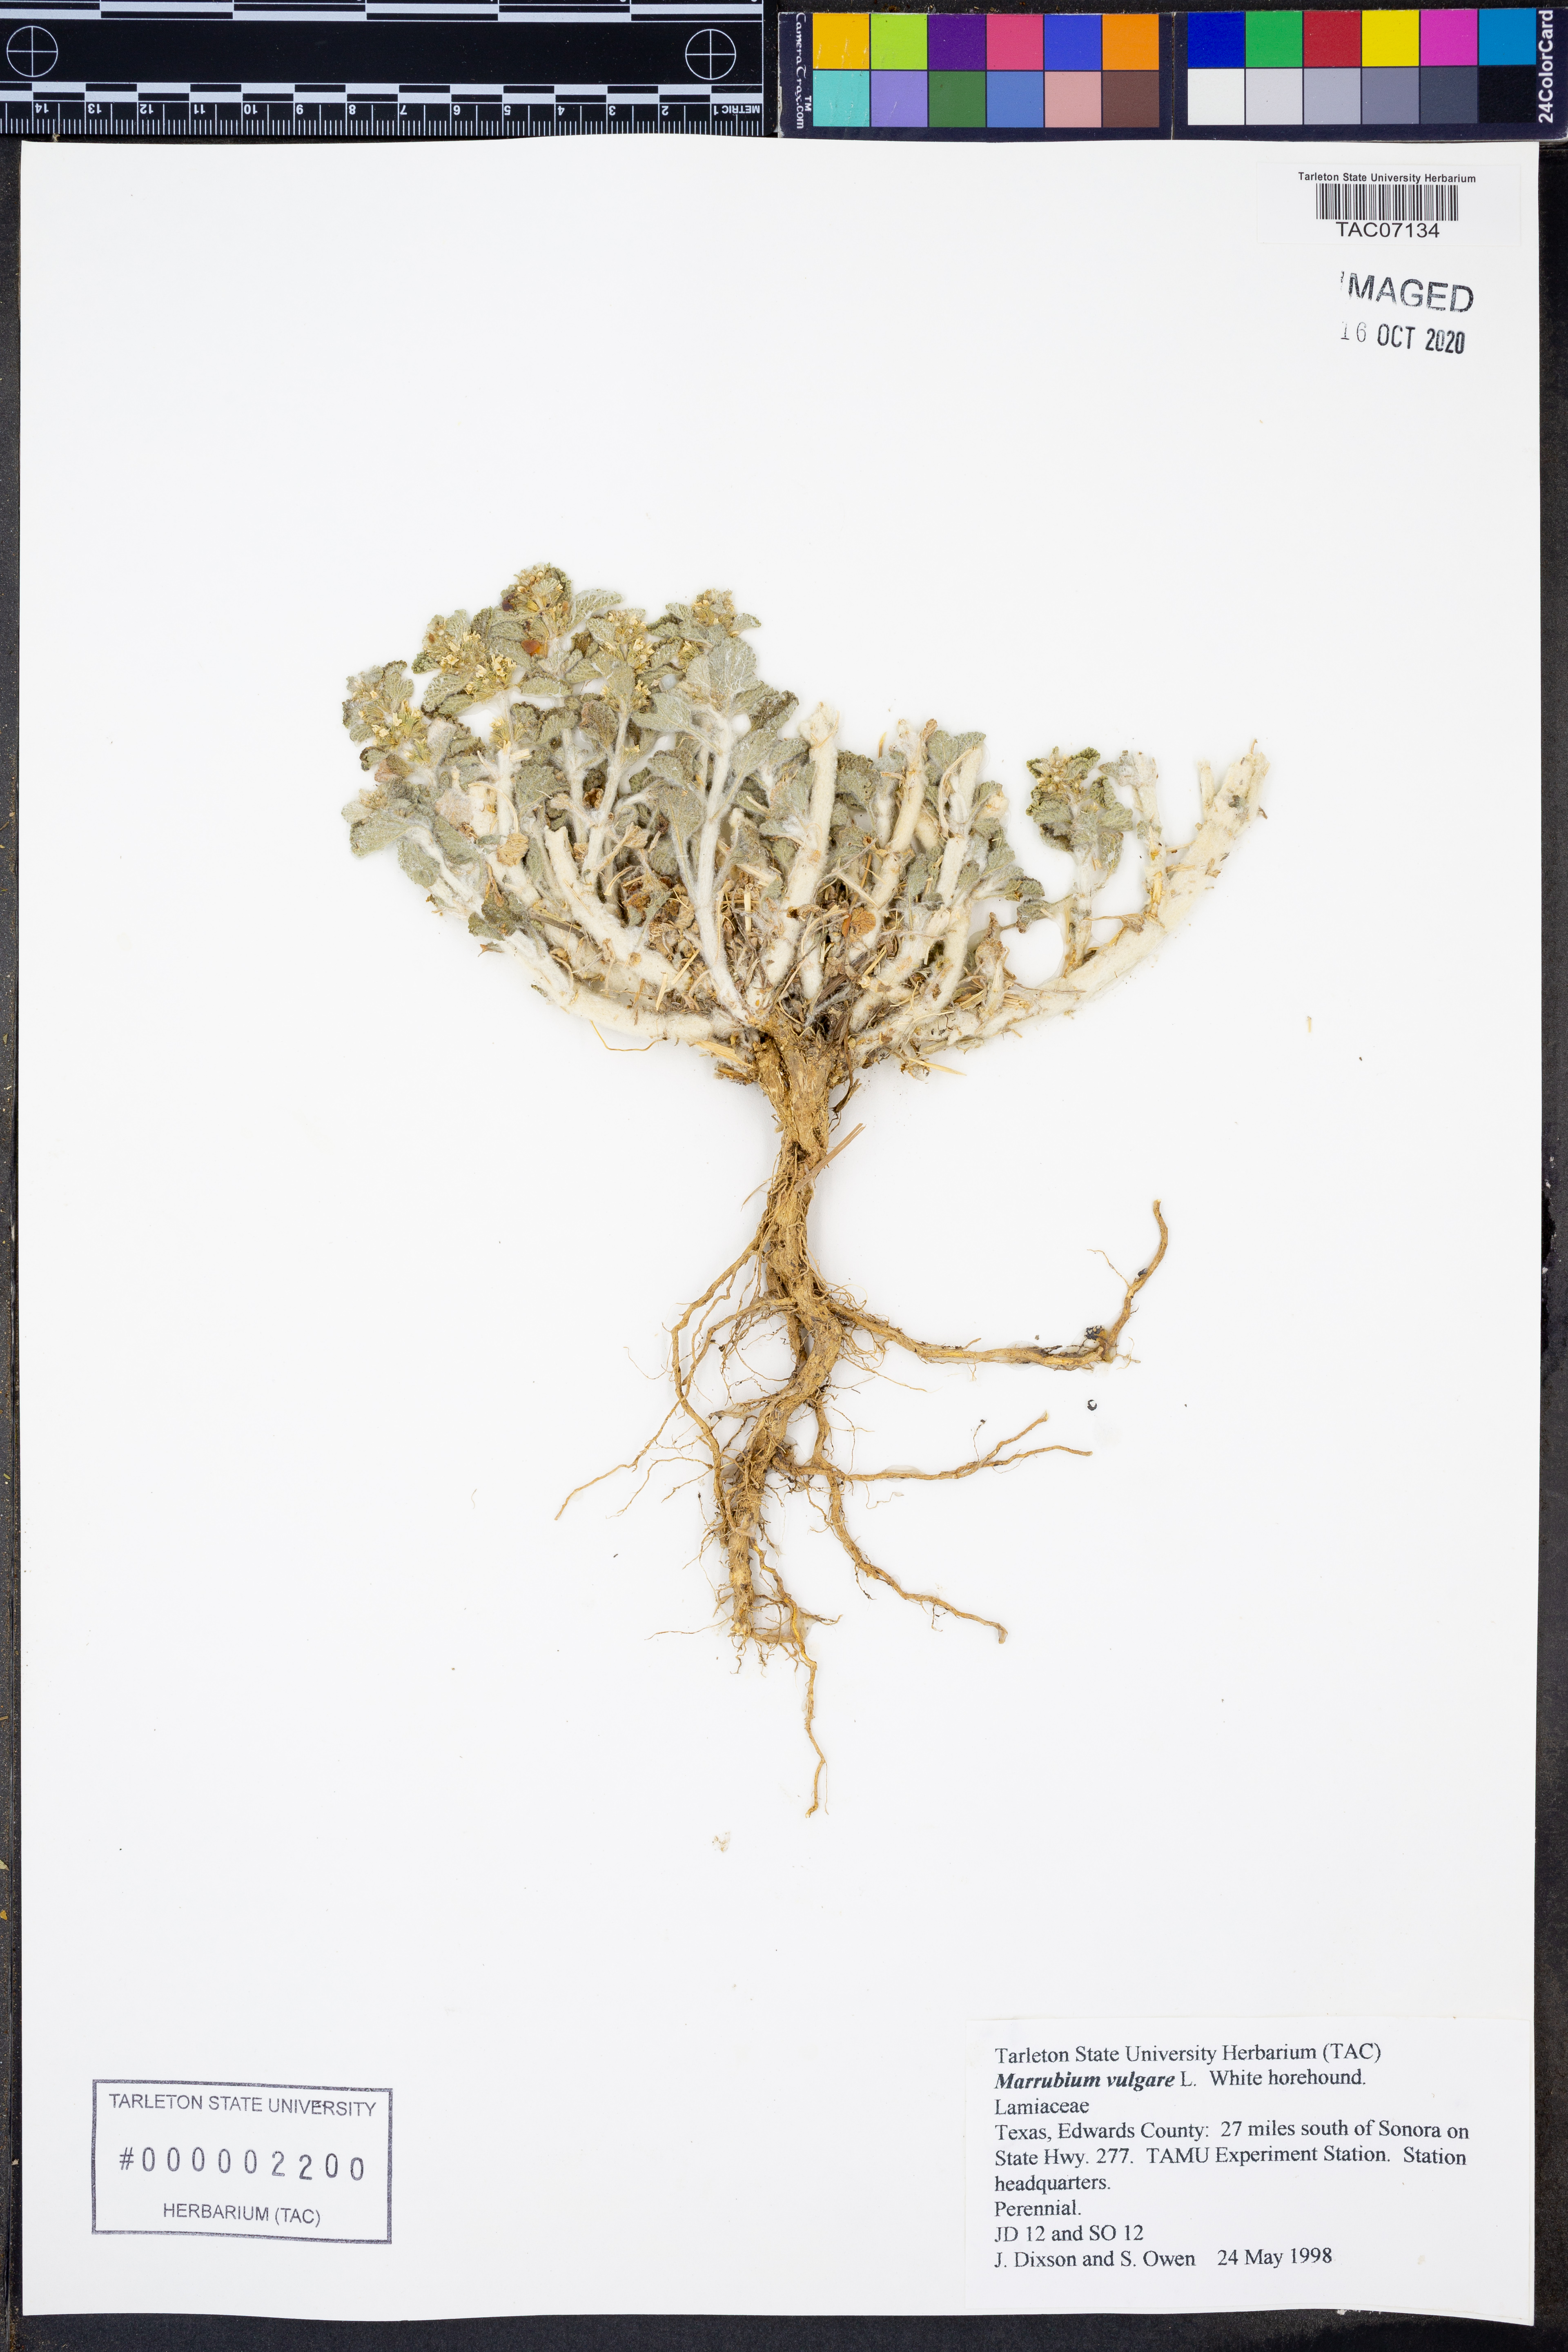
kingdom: Plantae
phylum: Tracheophyta
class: Magnoliopsida
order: Lamiales
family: Lamiaceae
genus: Marrubium
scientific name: Marrubium vulgare
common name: Horehound
